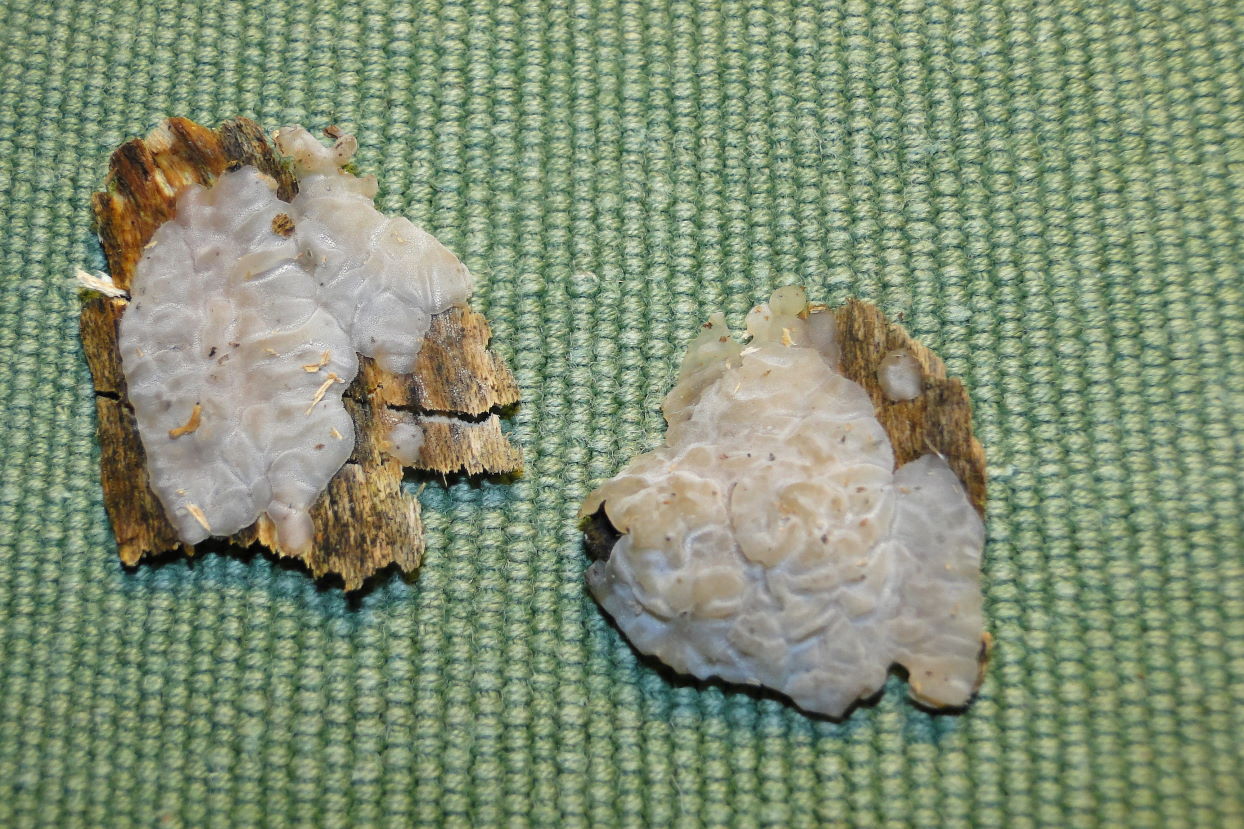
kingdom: Fungi
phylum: Basidiomycota
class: Agaricomycetes
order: Auriculariales
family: Auriculariaceae
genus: Exidia
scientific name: Exidia thuretiana
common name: hvidlig bævretop
